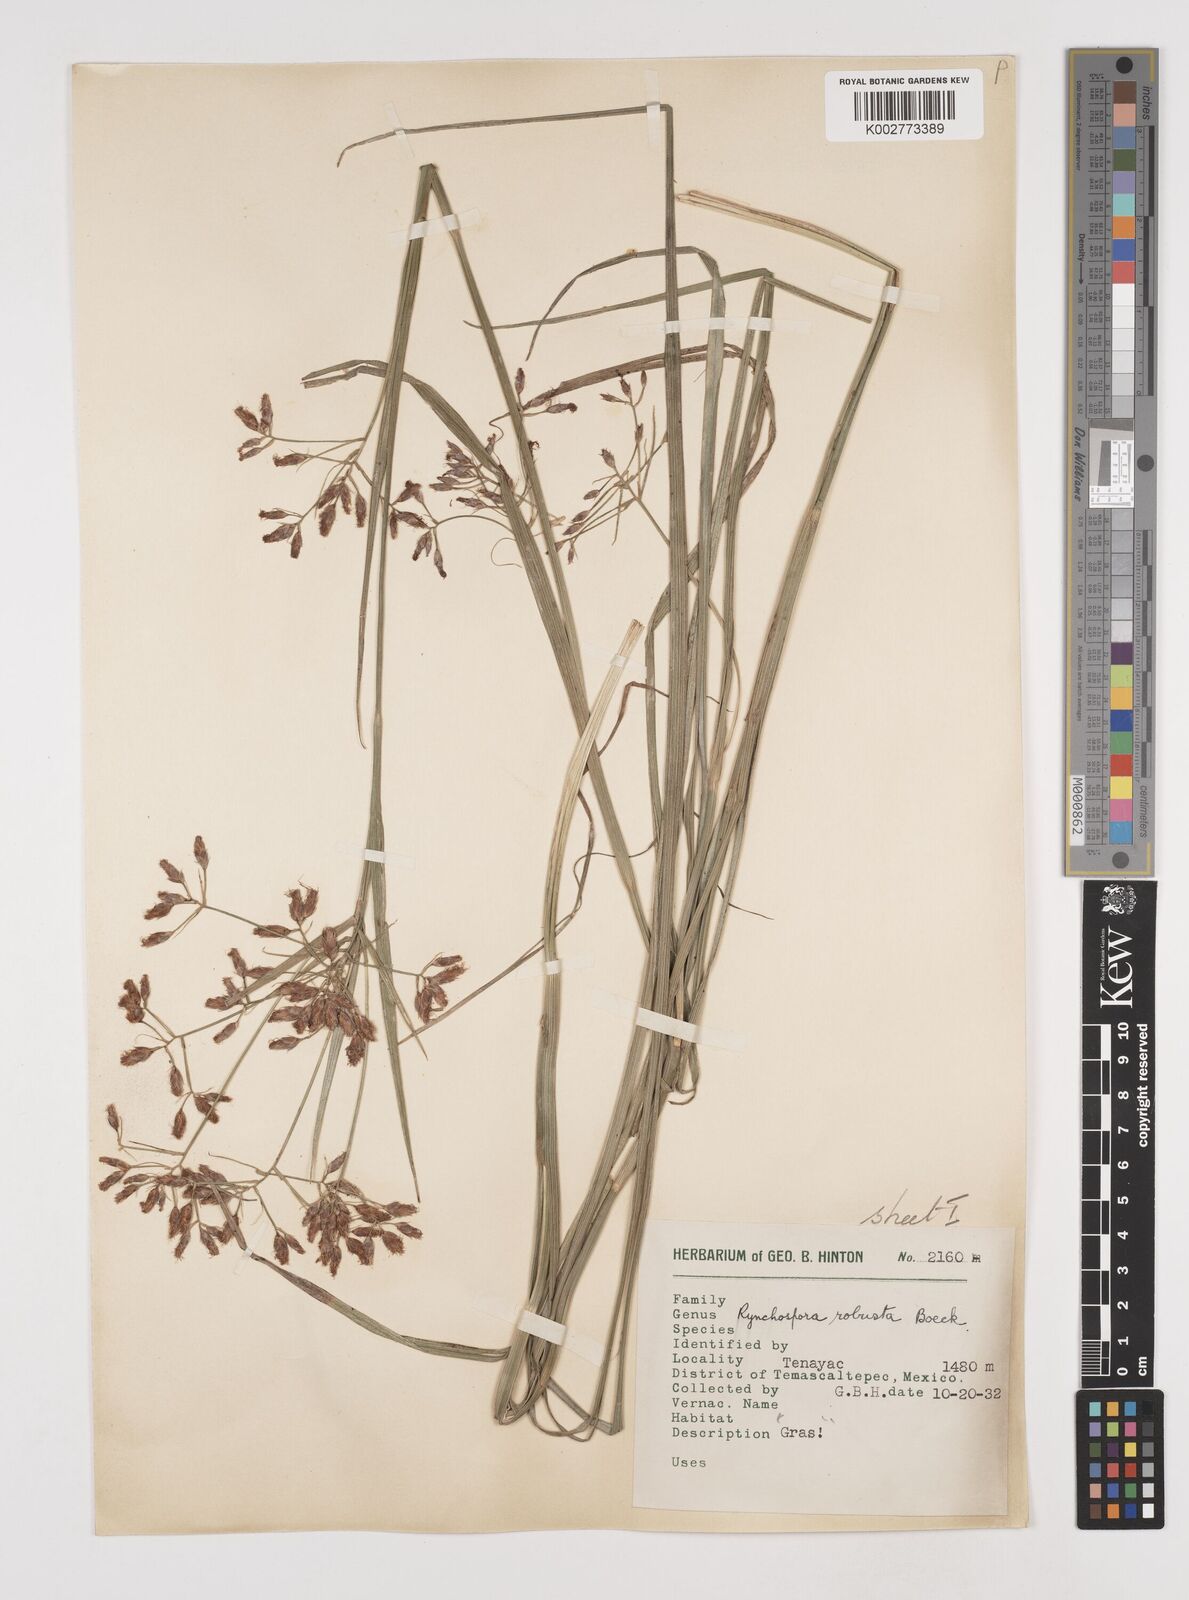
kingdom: Plantae
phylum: Tracheophyta
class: Liliopsida
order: Poales
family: Cyperaceae
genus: Rhynchospora
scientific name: Rhynchospora robusta
